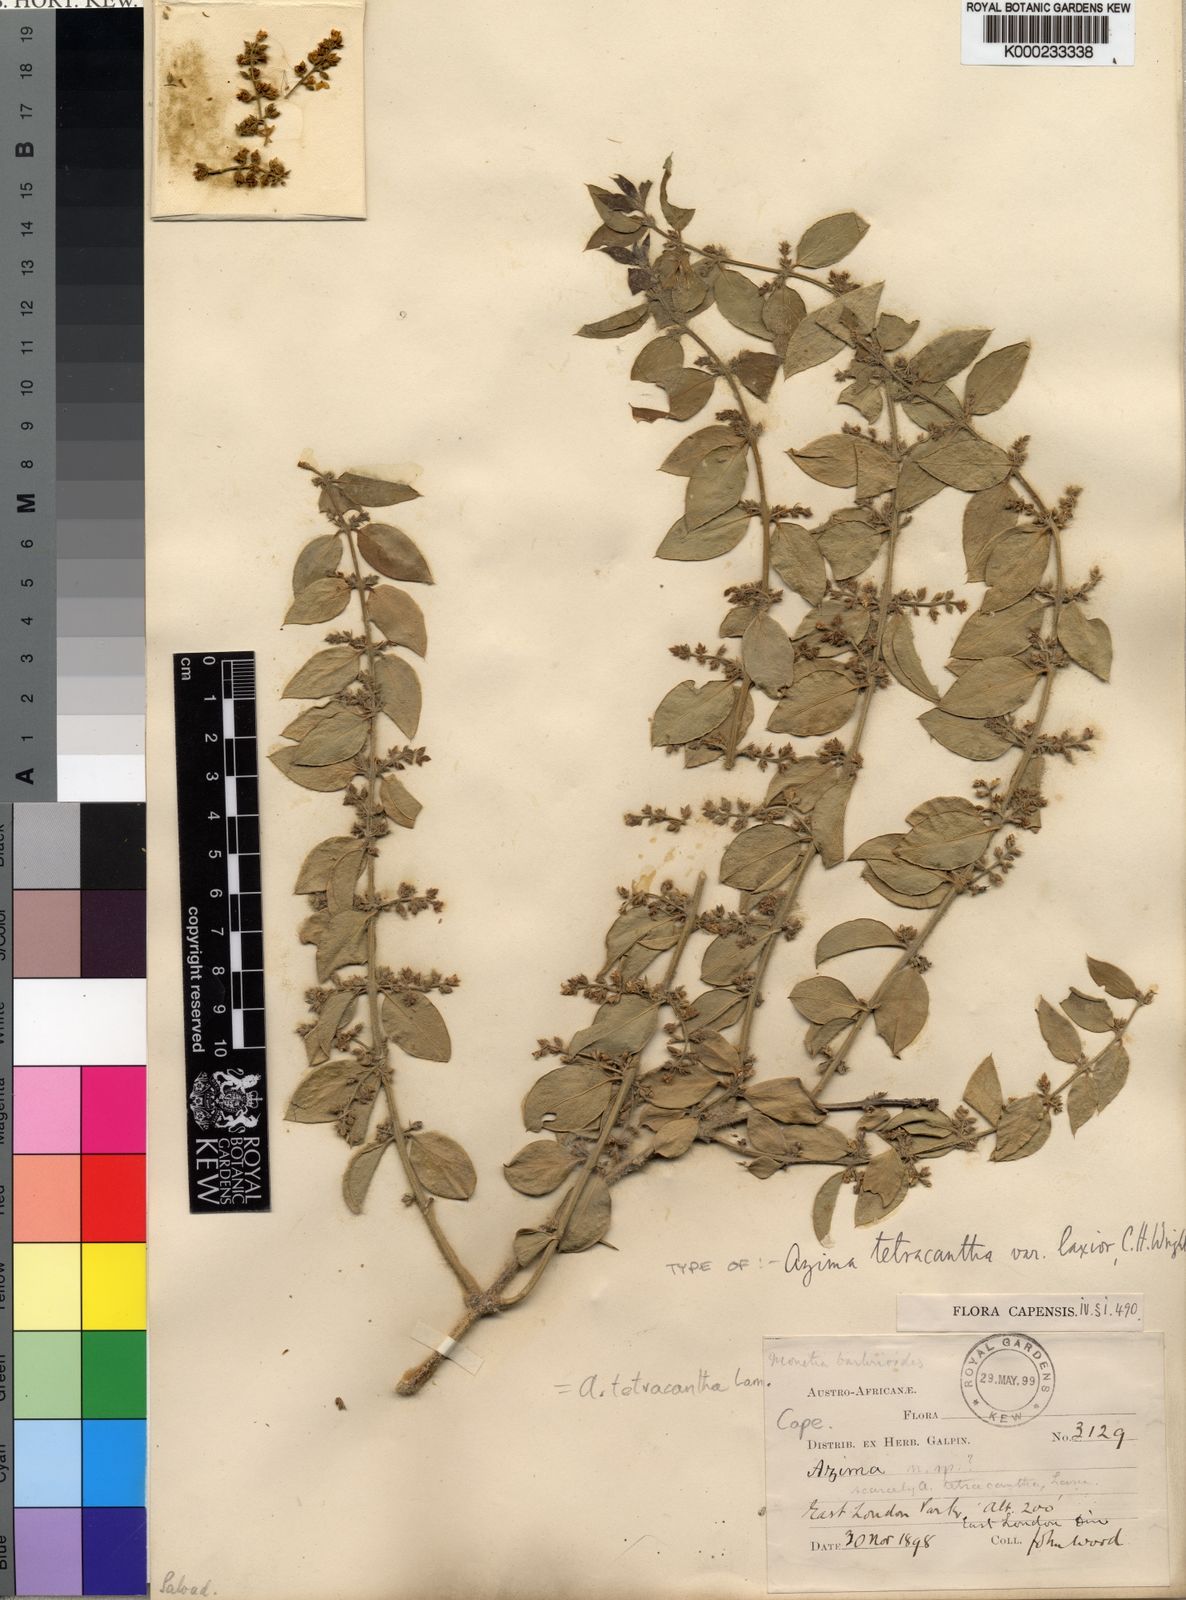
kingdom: Plantae
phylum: Tracheophyta
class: Magnoliopsida
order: Brassicales
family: Salvadoraceae
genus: Azima
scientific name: Azima tetracantha
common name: Needle bush
